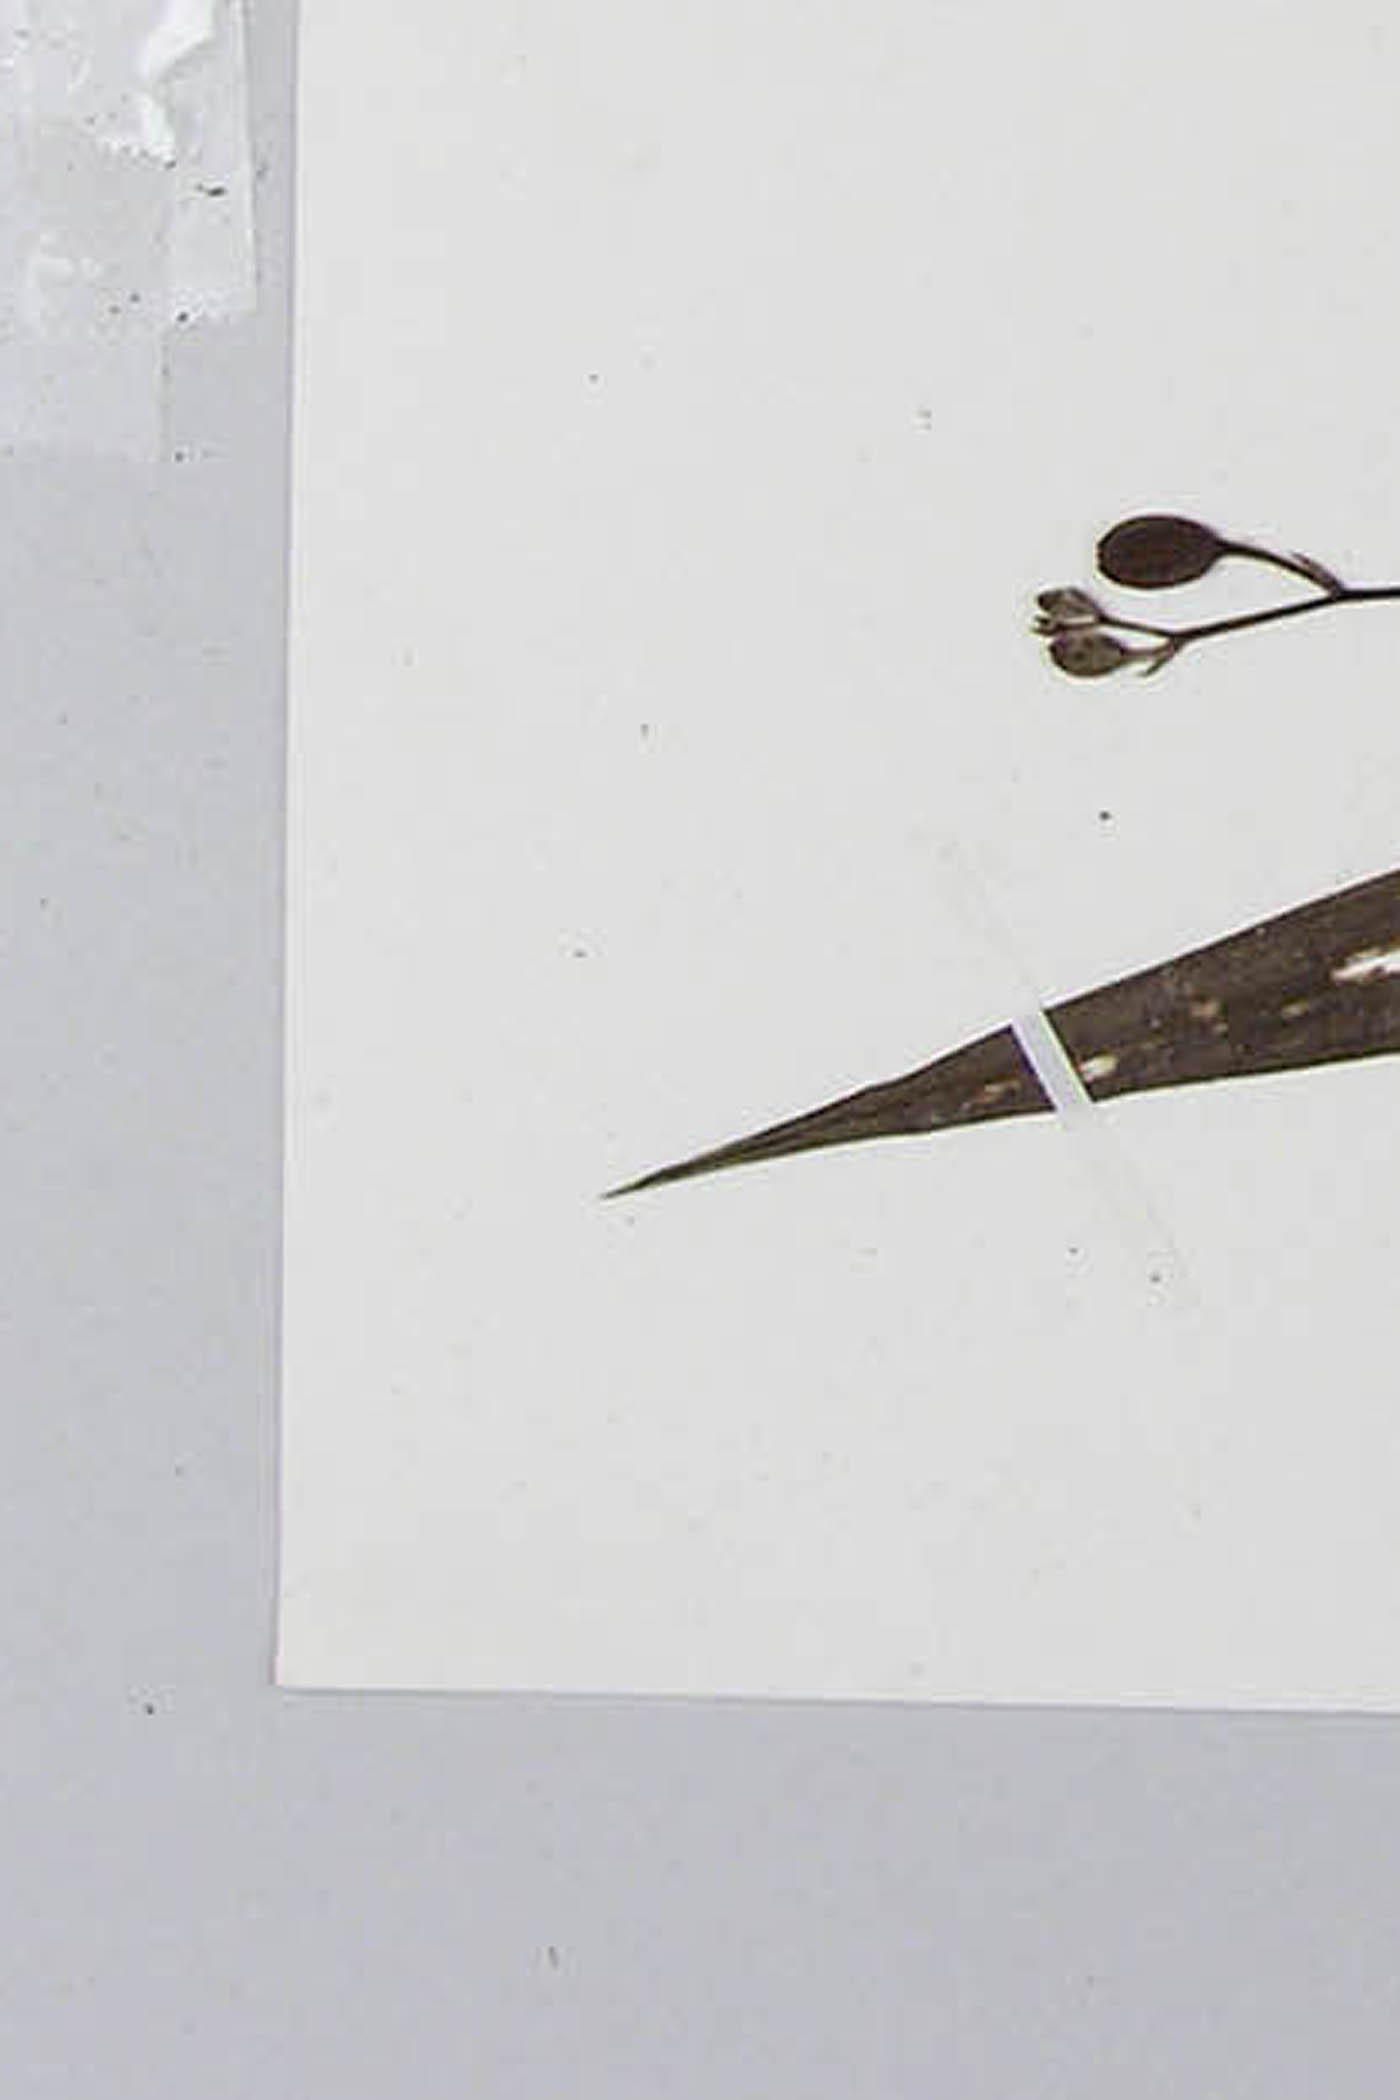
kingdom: Plantae
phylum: Tracheophyta
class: Liliopsida
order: Asparagales
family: Orchidaceae
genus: Spathoglottis
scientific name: Spathoglottis pubescens
